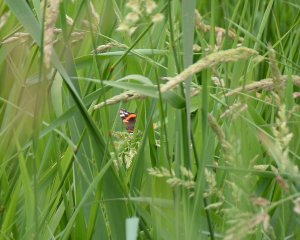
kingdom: Animalia
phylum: Arthropoda
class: Insecta
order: Lepidoptera
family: Nymphalidae
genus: Vanessa
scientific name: Vanessa atalanta
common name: Red Admiral
